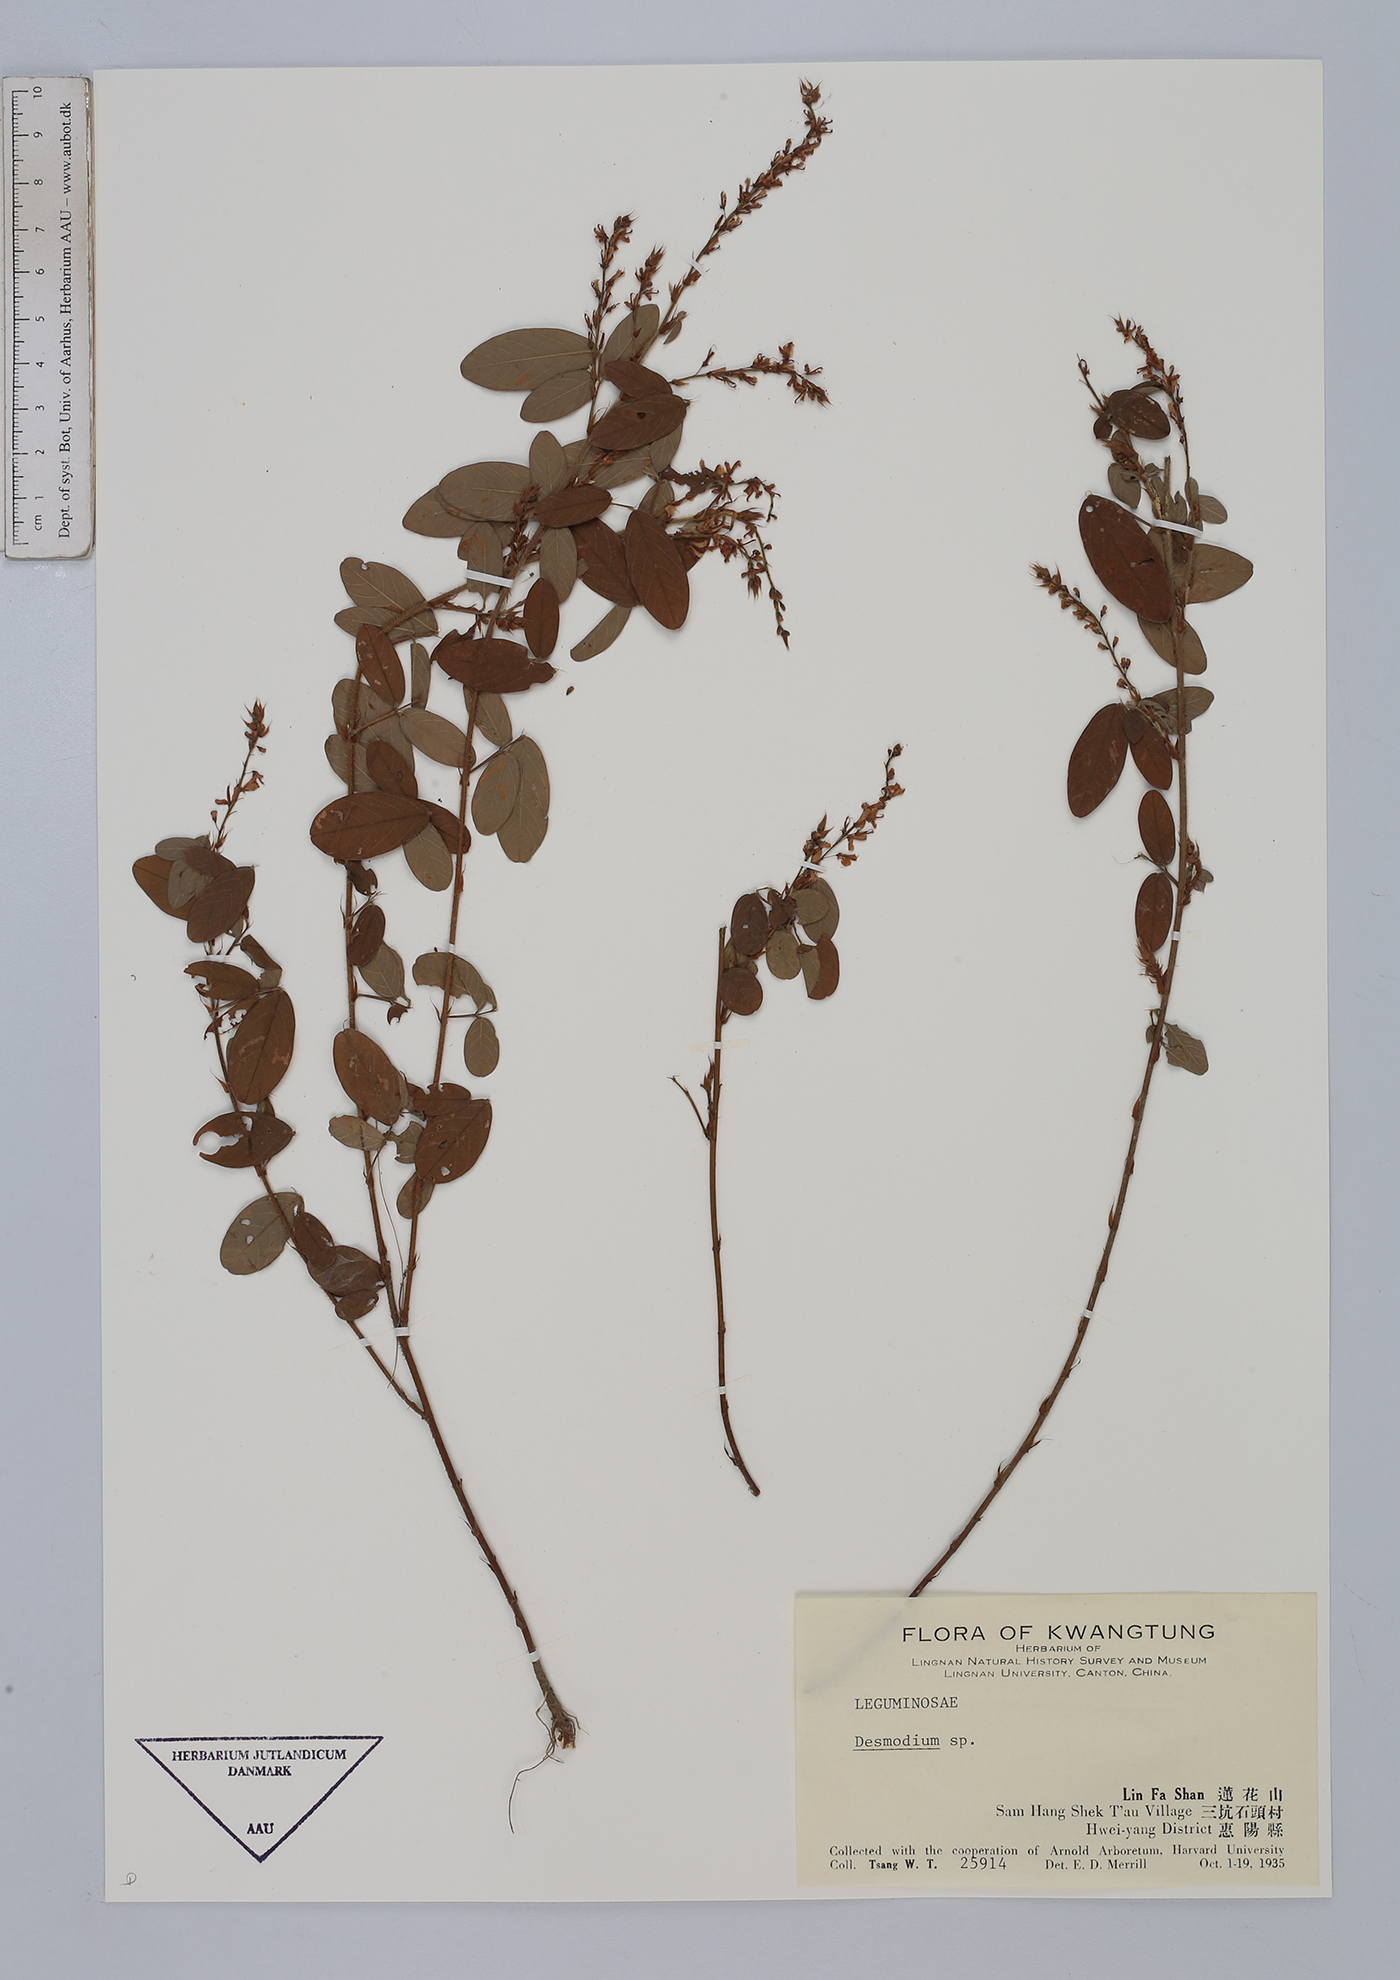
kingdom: Plantae
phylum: Tracheophyta
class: Magnoliopsida
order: Fabales
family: Fabaceae
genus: Desmodium
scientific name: Desmodium
